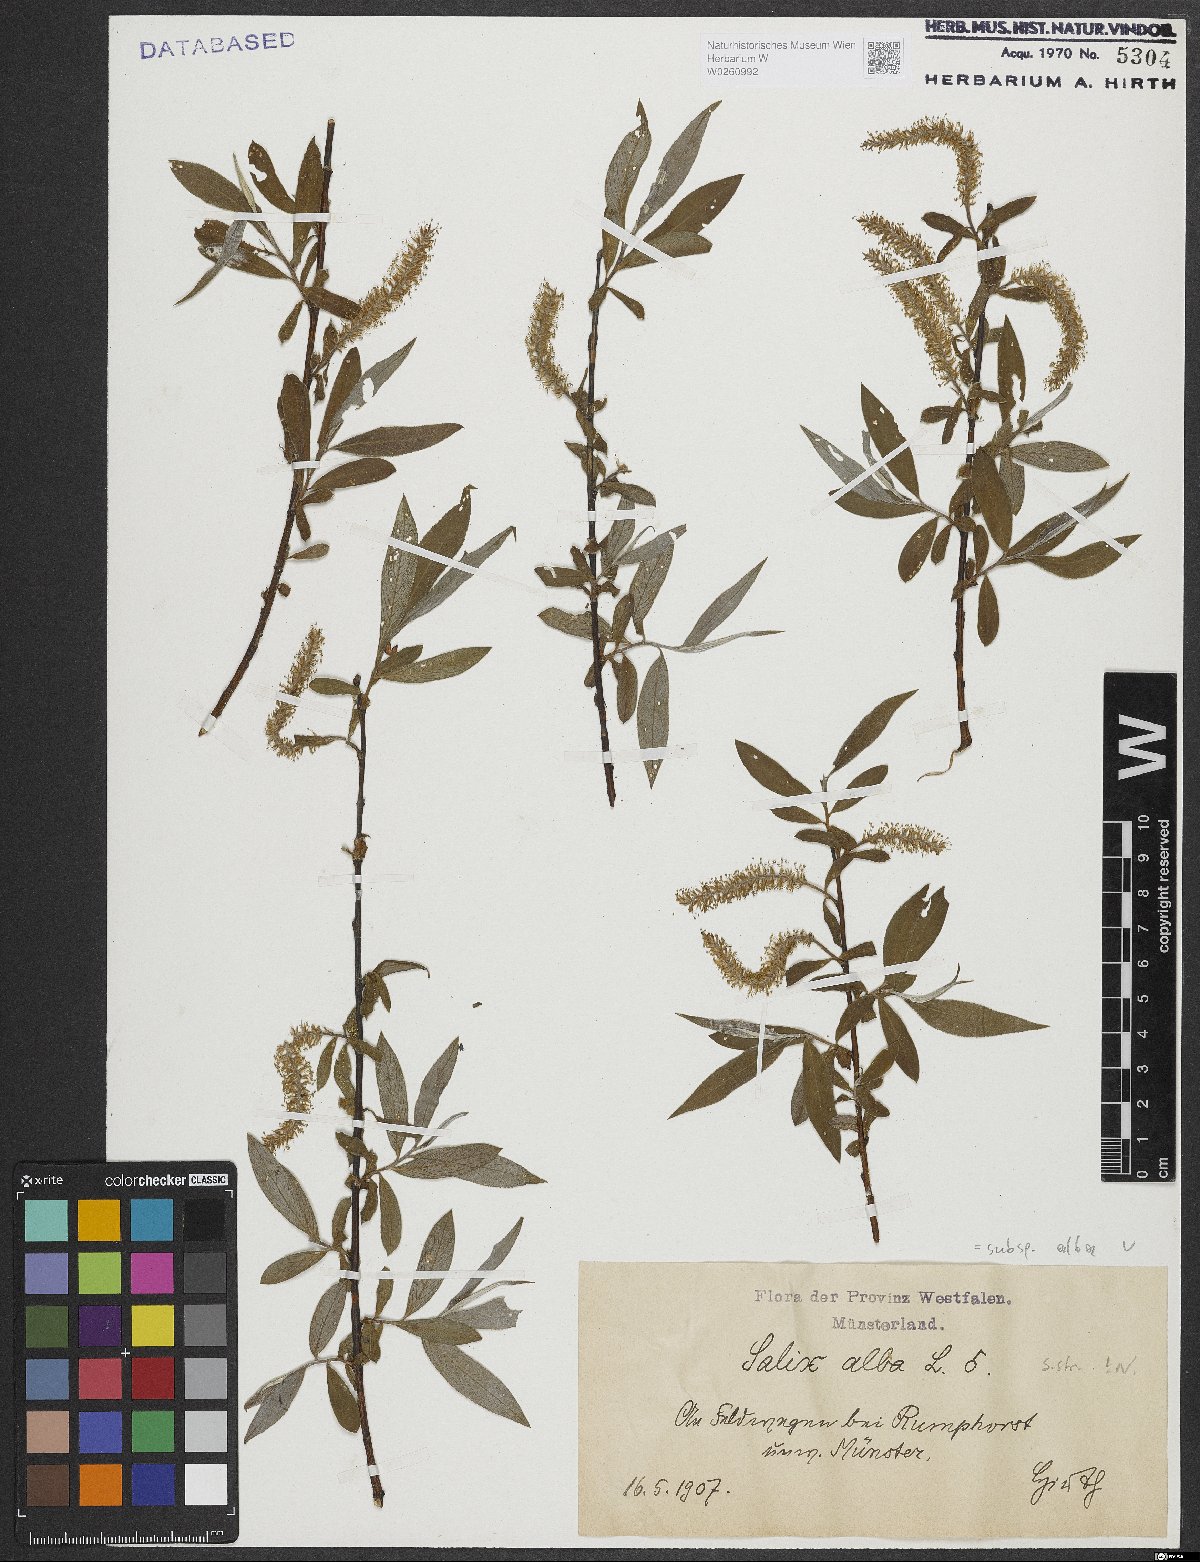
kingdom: Plantae
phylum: Tracheophyta
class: Magnoliopsida
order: Malpighiales
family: Salicaceae
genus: Salix
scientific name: Salix alba
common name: White willow
